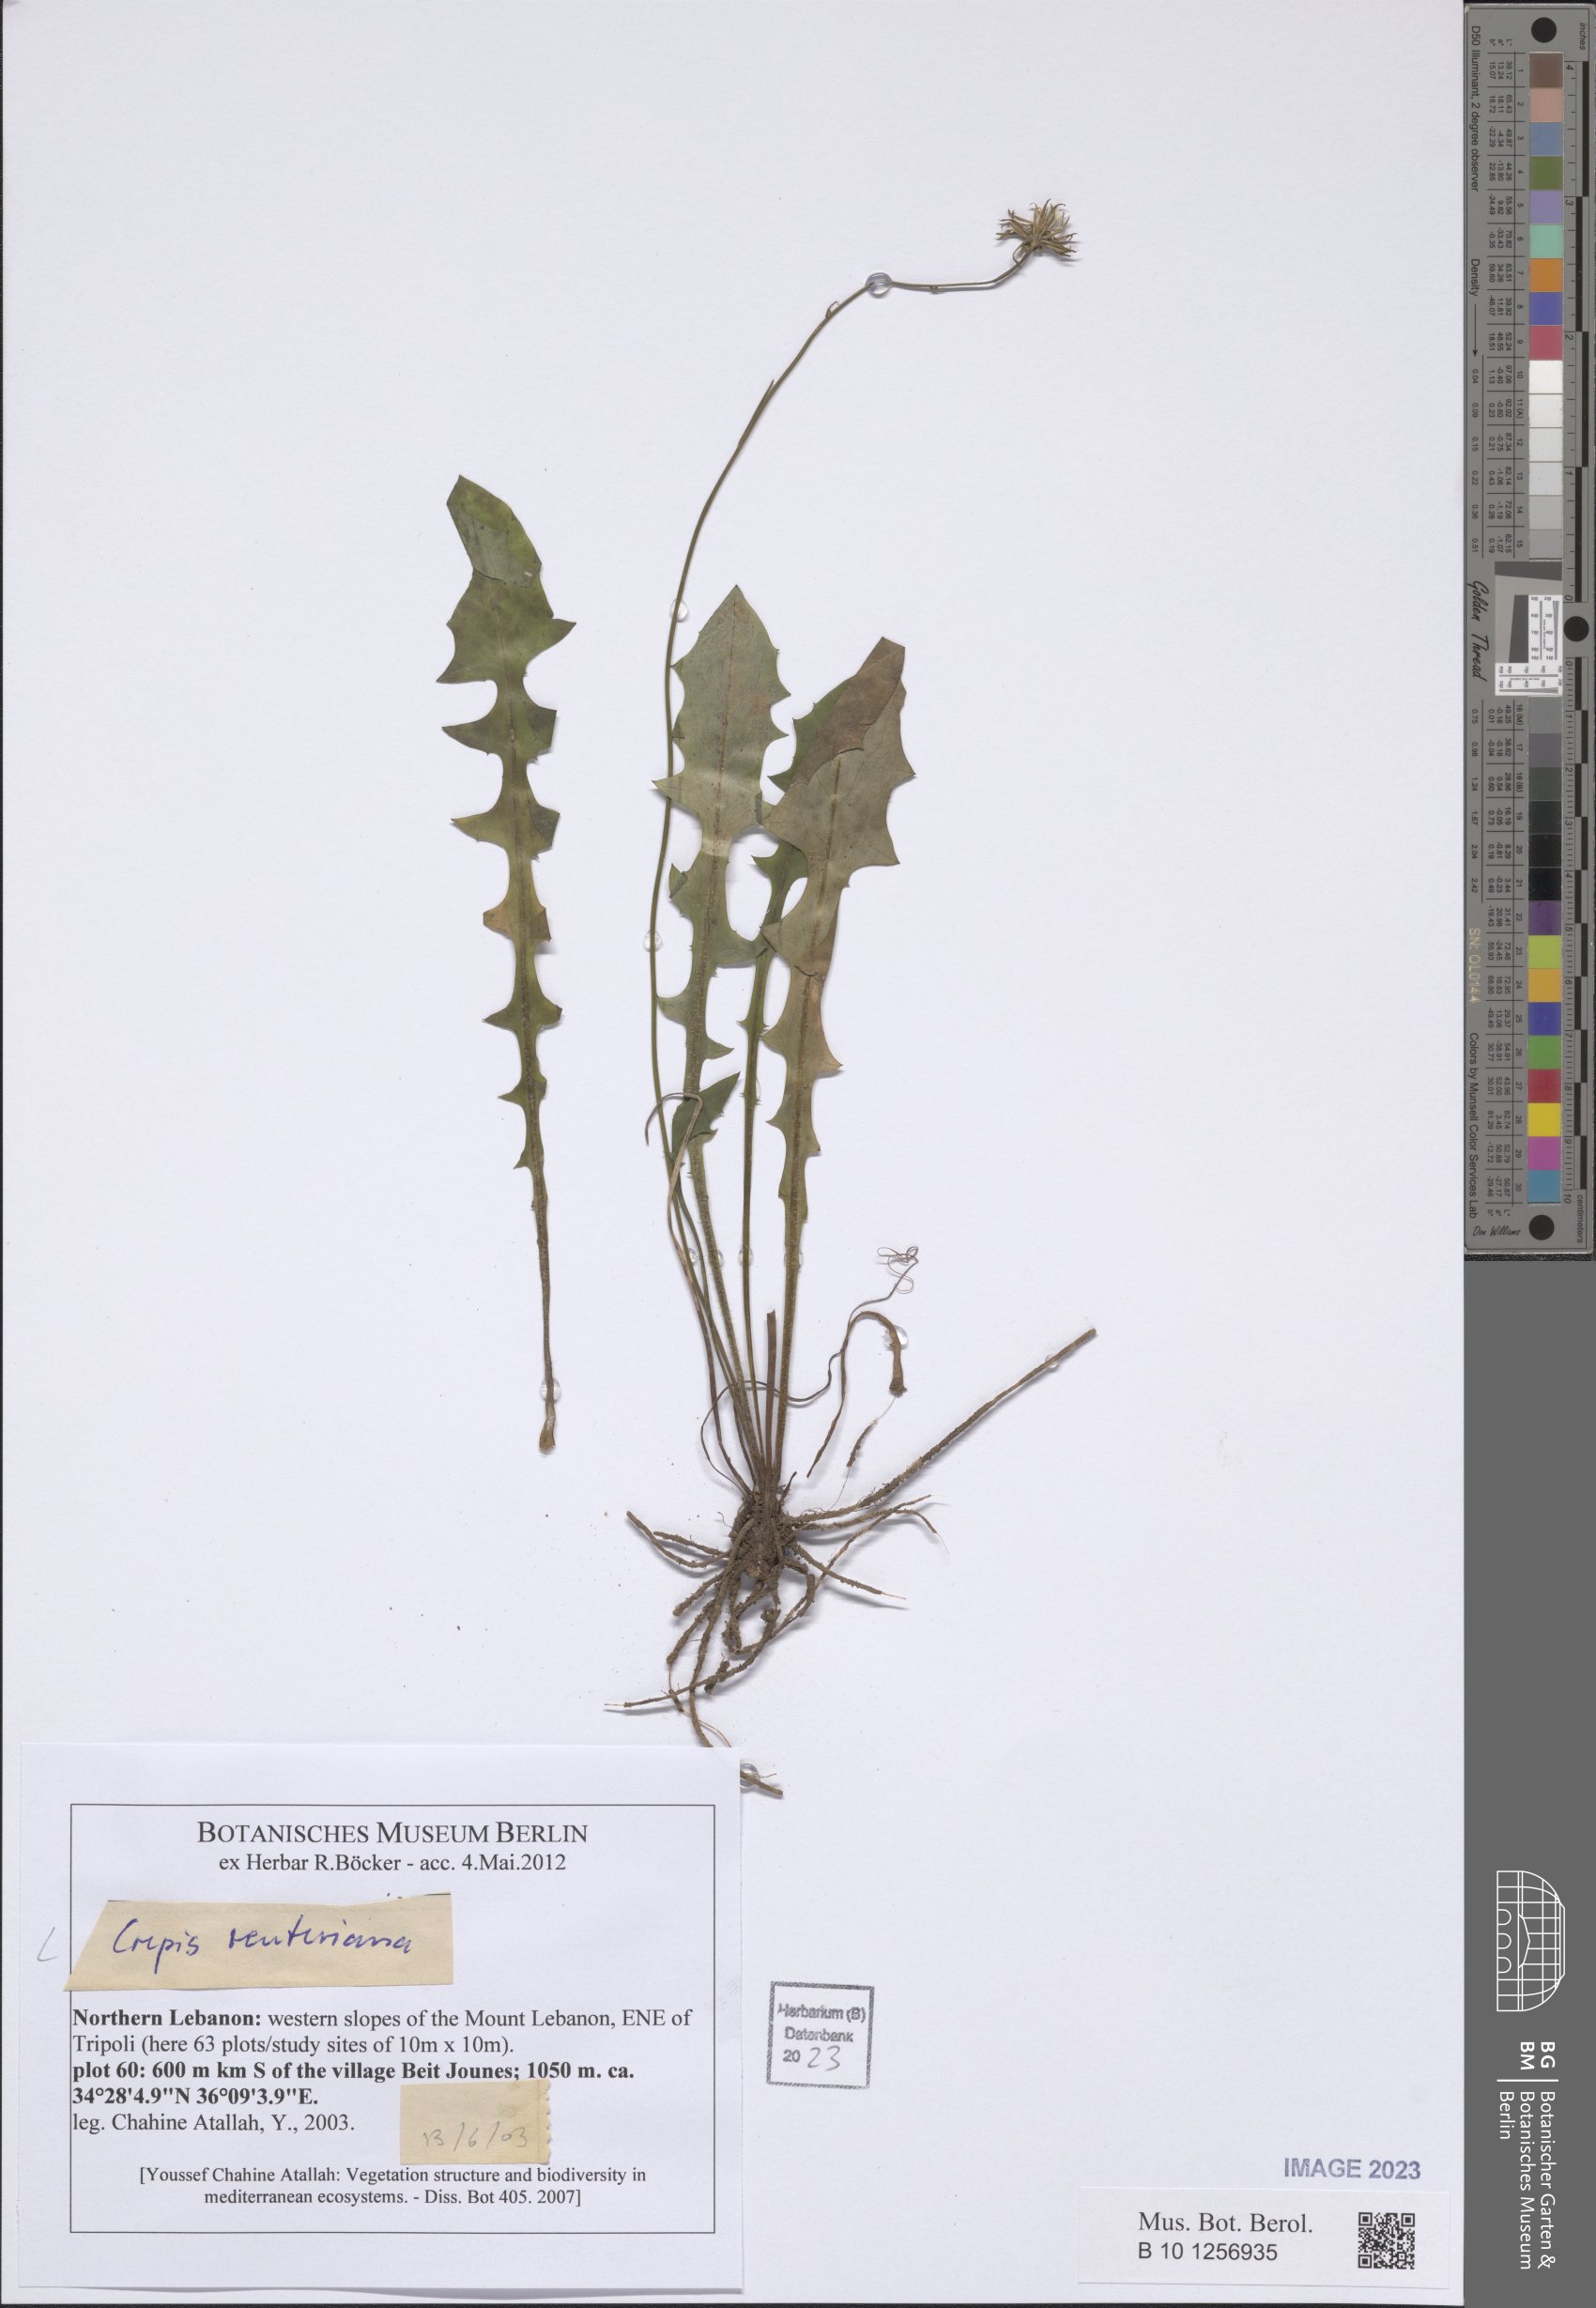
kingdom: Plantae
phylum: Tracheophyta
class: Magnoliopsida
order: Asterales
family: Asteraceae
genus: Crepis
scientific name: Crepis reuteriana
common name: Hawk's-beard
